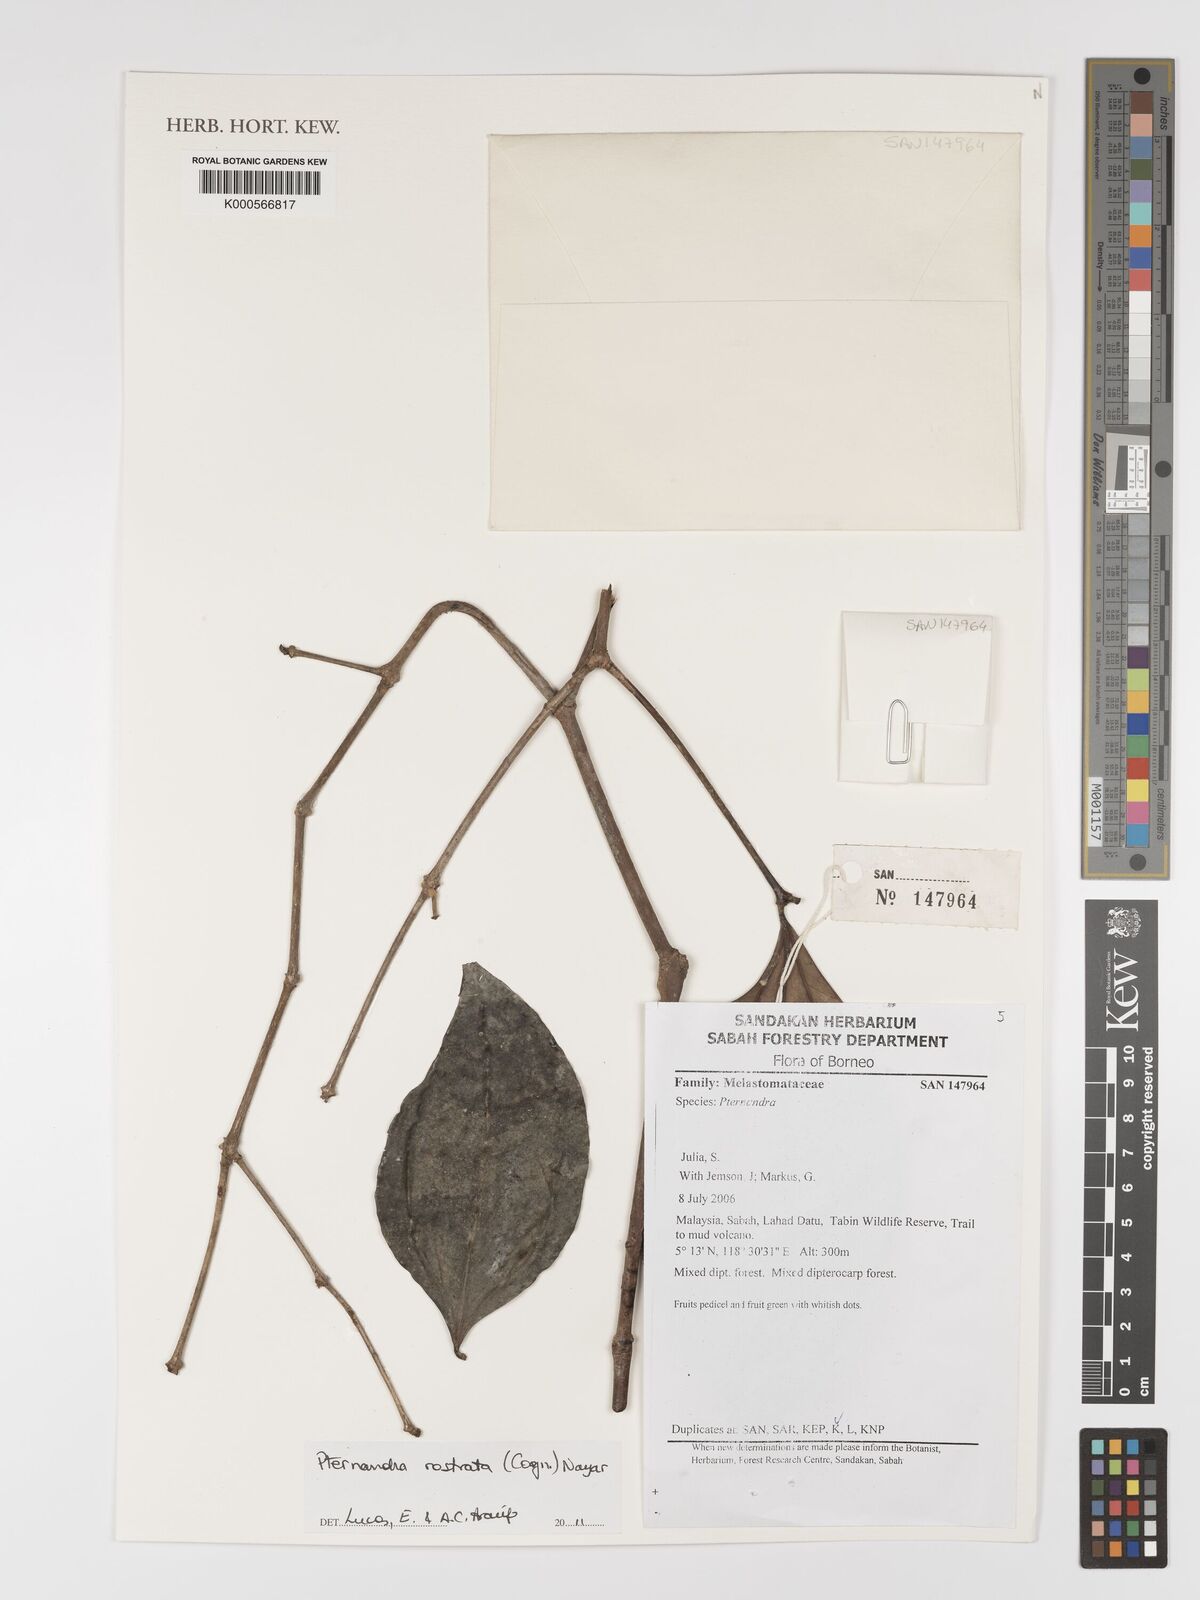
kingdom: Plantae
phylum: Tracheophyta
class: Magnoliopsida
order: Myrtales
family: Melastomataceae
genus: Pternandra
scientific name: Pternandra rostrata
